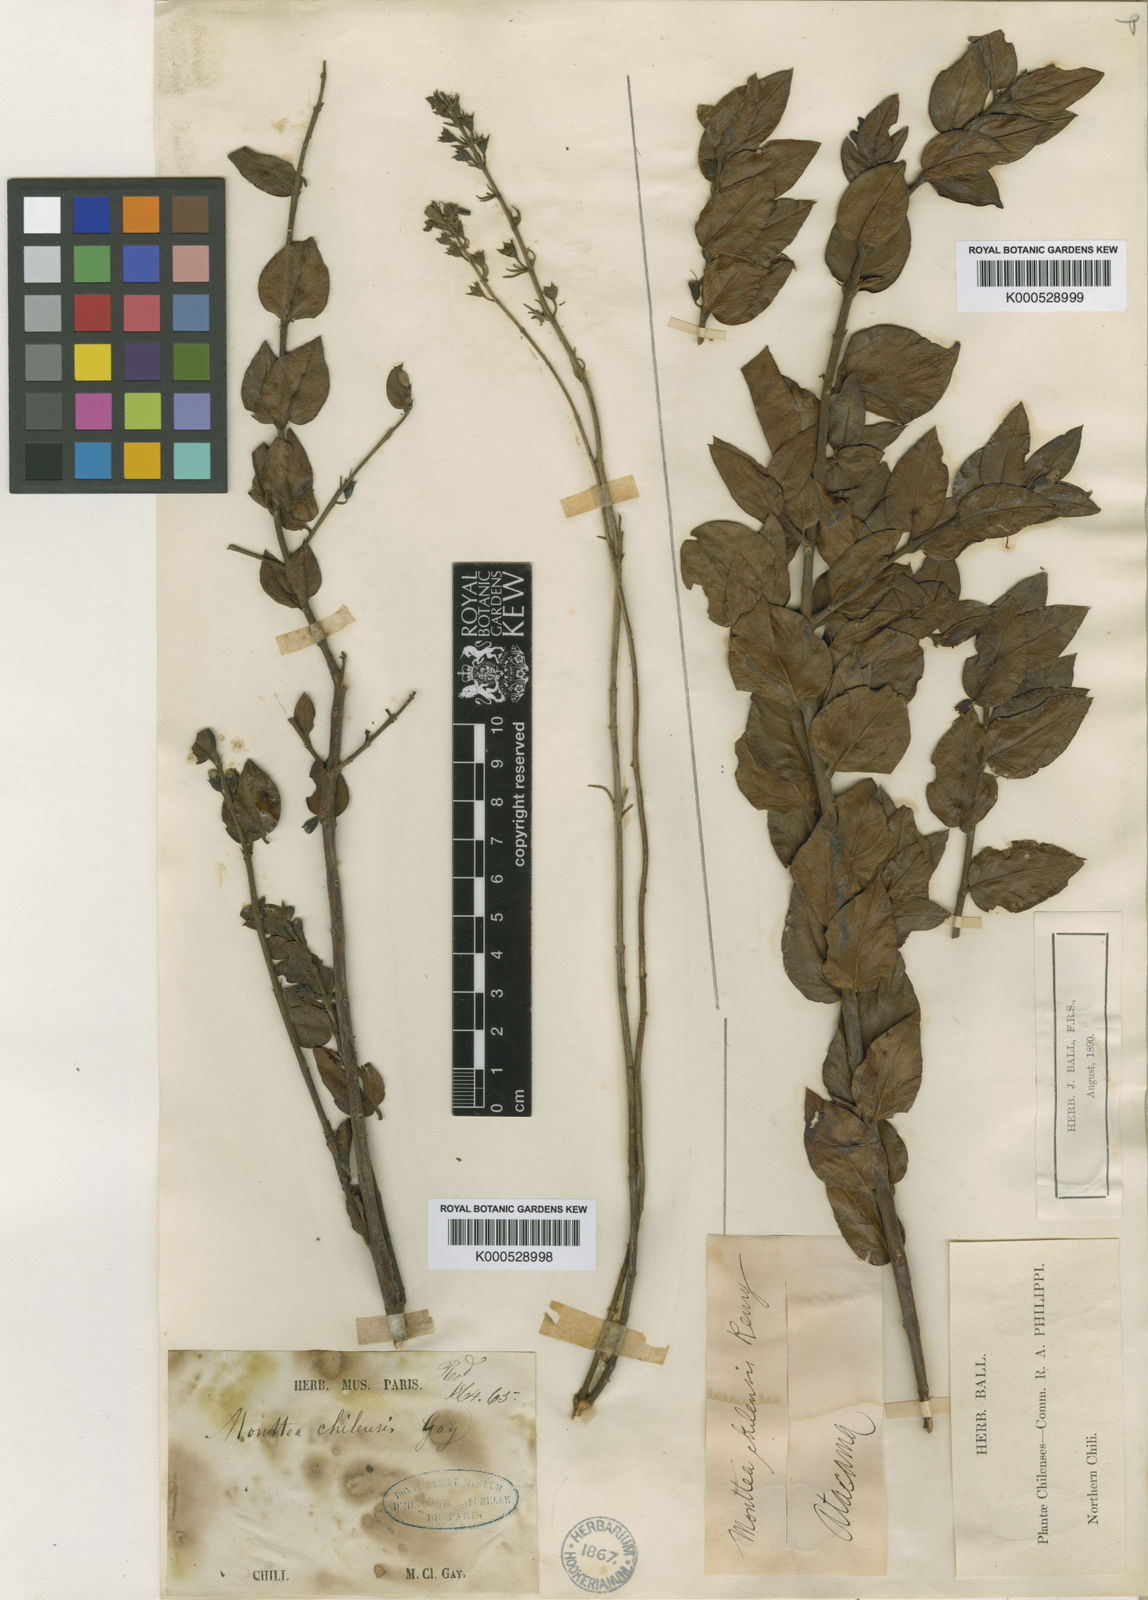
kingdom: Plantae
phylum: Tracheophyta
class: Magnoliopsida
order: Lamiales
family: Plantaginaceae
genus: Monttea
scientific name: Monttea chilensis
